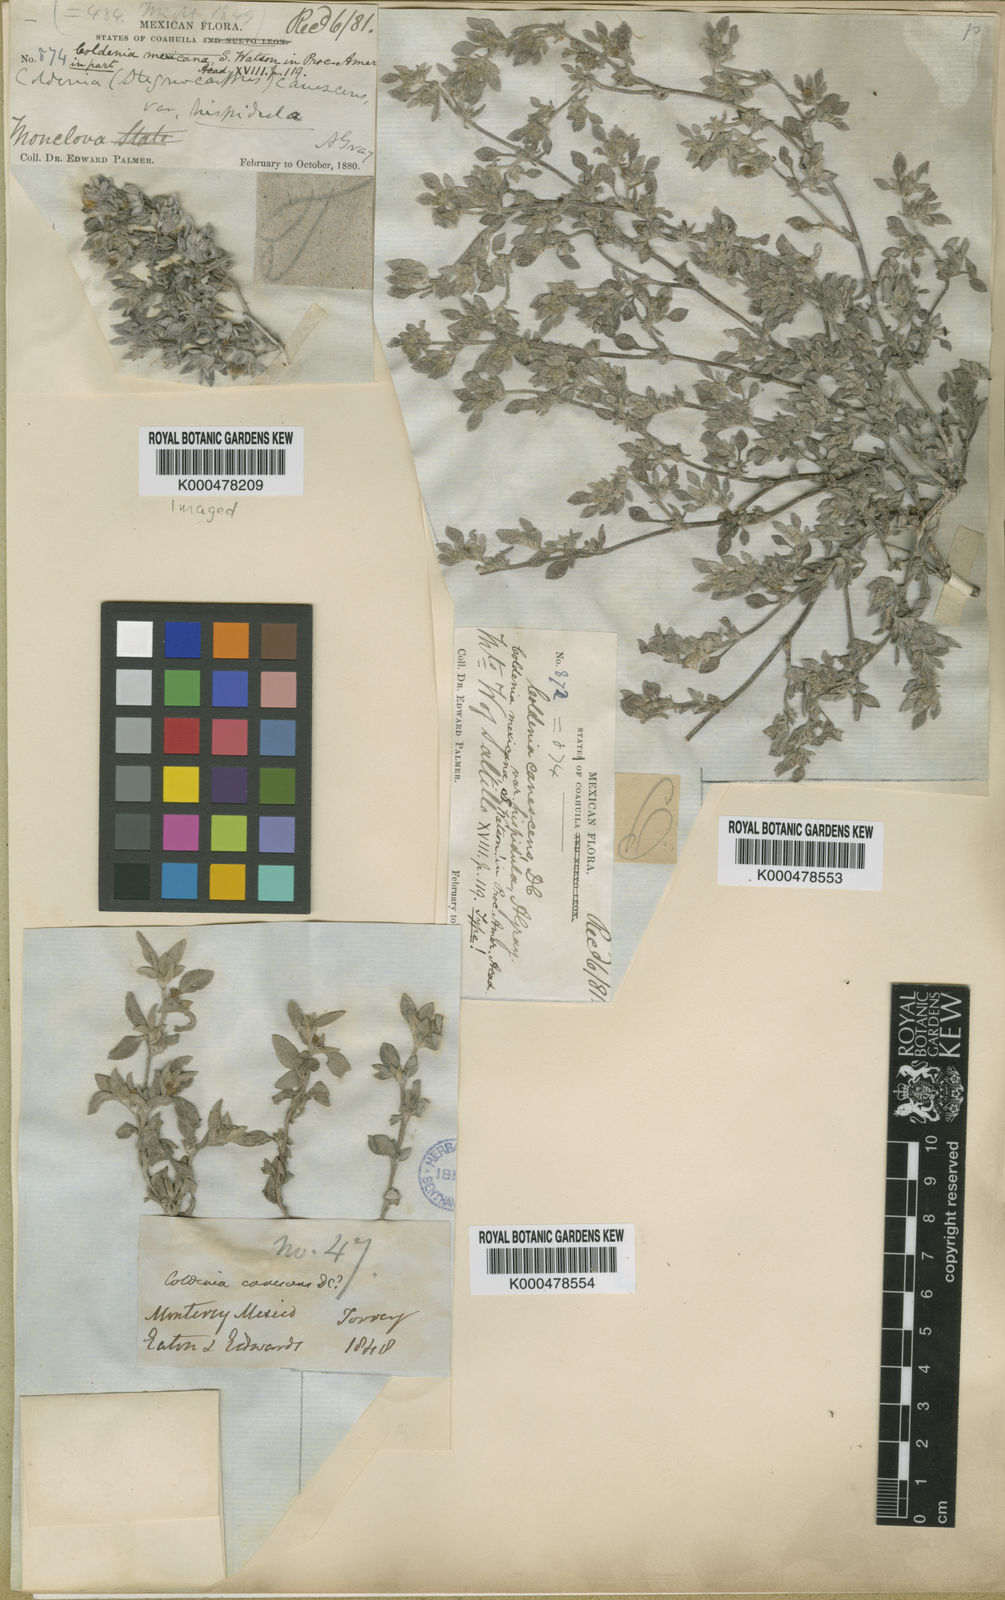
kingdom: Plantae
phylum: Tracheophyta
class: Magnoliopsida
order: Boraginales
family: Ehretiaceae
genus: Tiquilia
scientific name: Tiquilia canescens
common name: Hairy tiquilia
